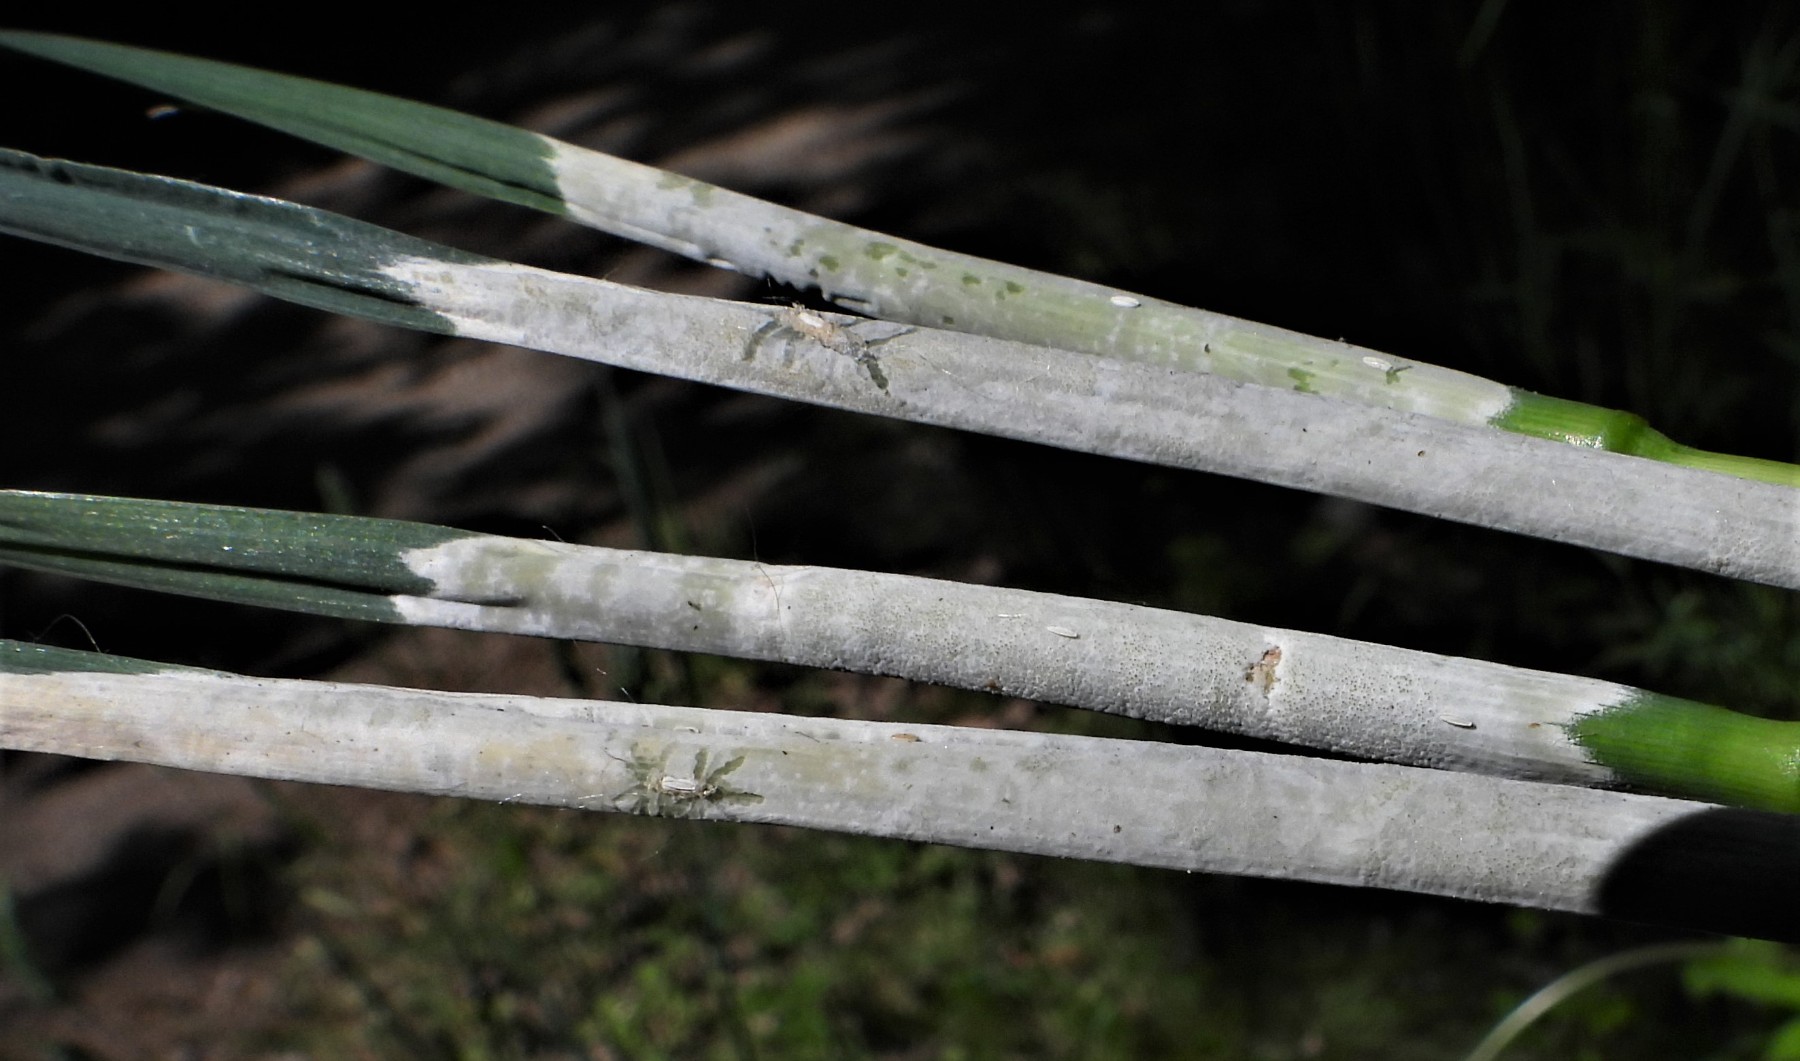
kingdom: Fungi
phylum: Ascomycota
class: Sordariomycetes
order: Hypocreales
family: Clavicipitaceae
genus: Epichloe
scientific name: Epichloe typhina
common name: almindelig kernerør
